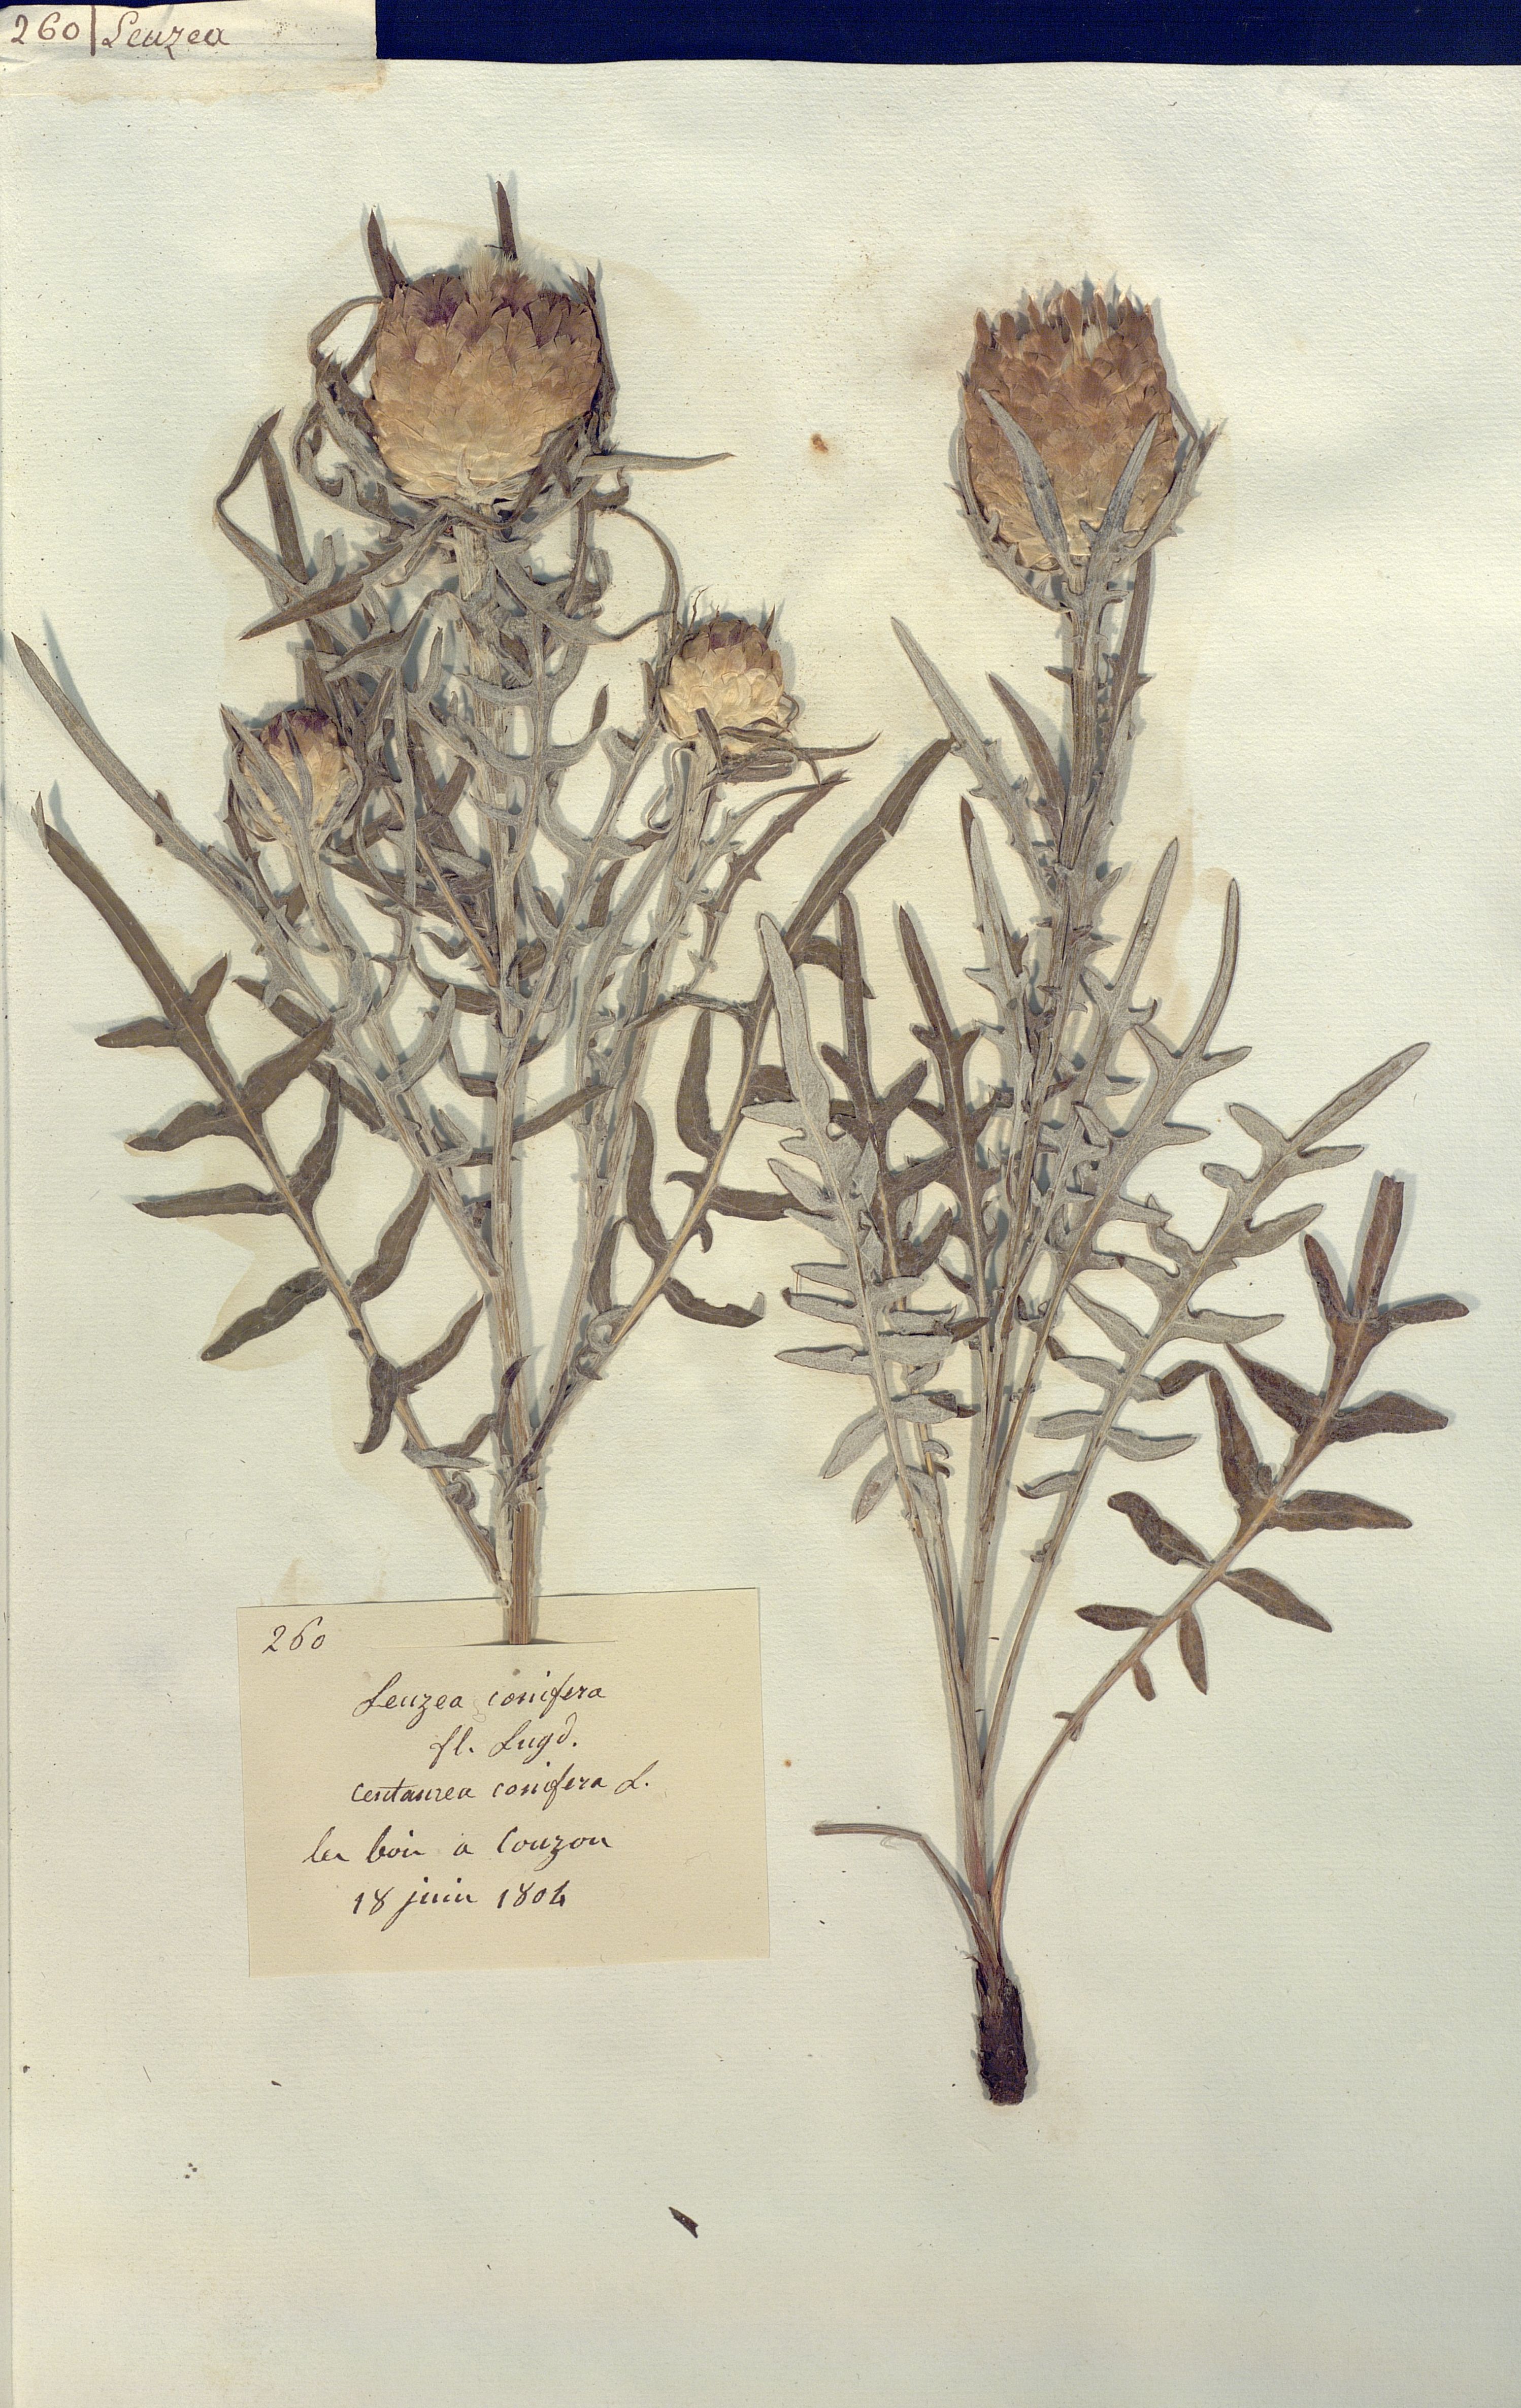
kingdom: Plantae
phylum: Tracheophyta
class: Magnoliopsida
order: Asterales
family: Asteraceae
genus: Leuzea
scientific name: Leuzea conifera
